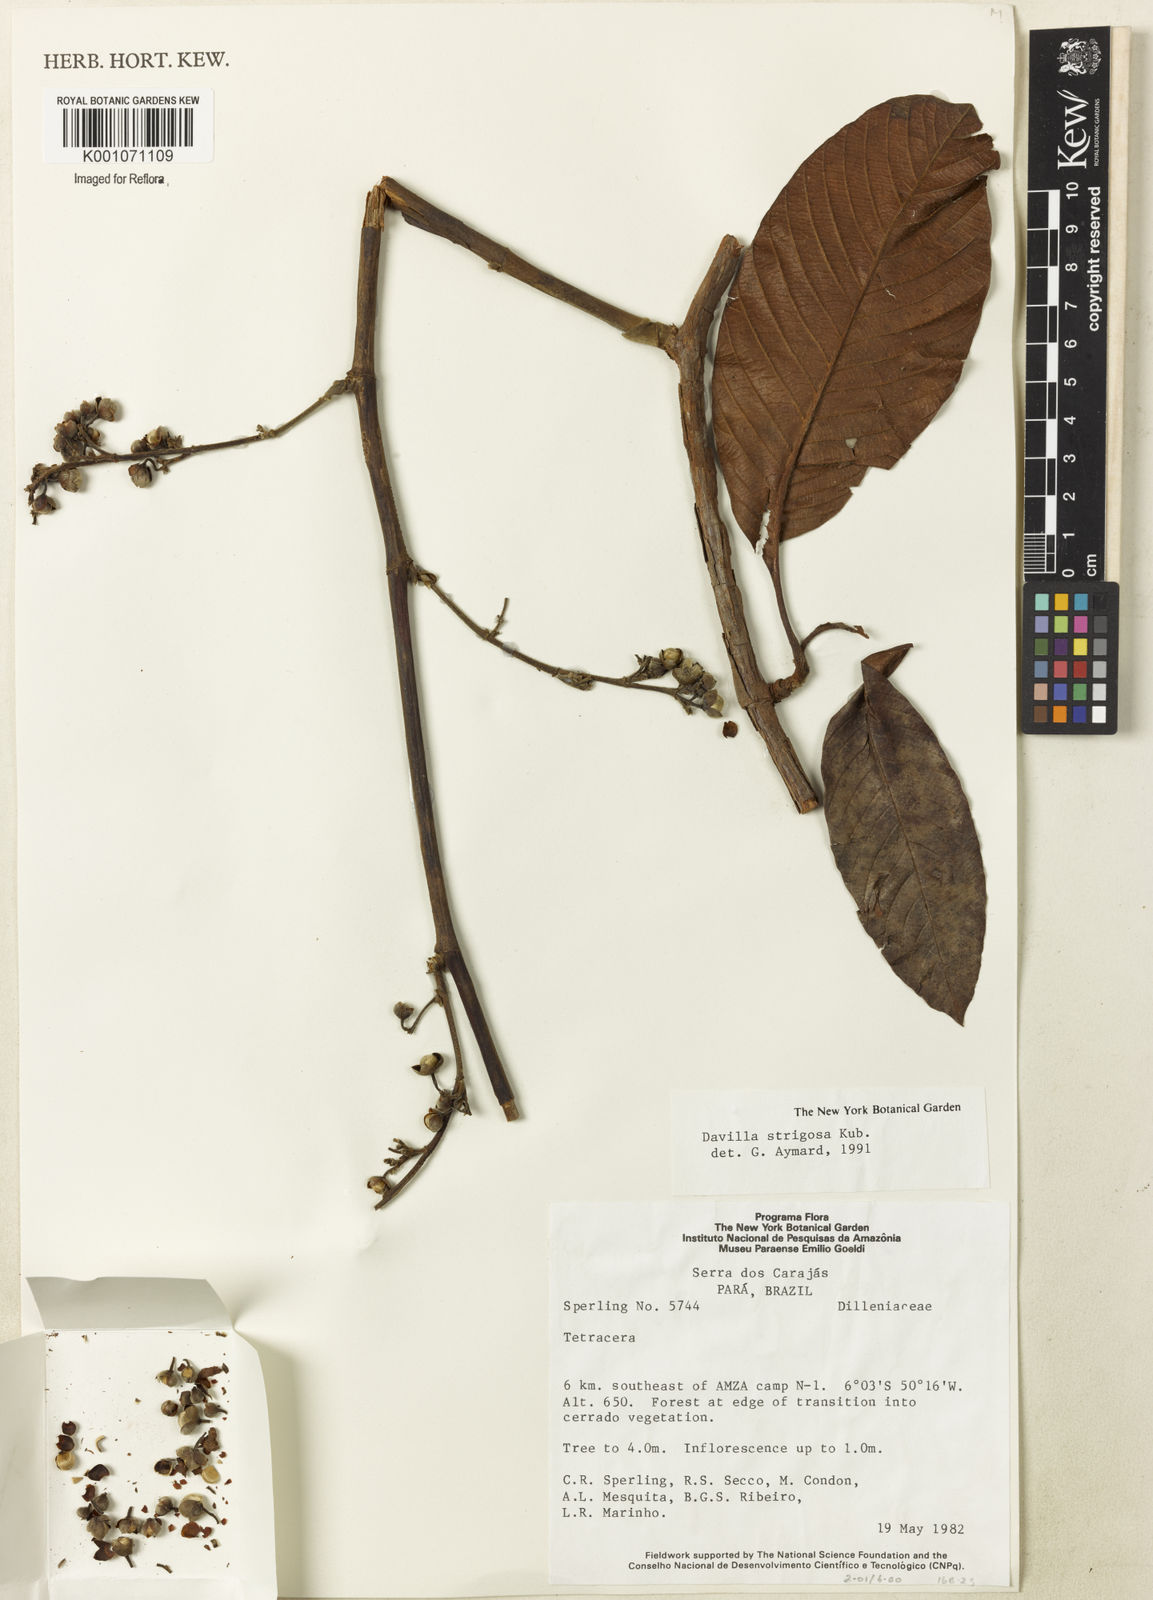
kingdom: Plantae
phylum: Tracheophyta
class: Magnoliopsida
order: Dilleniales
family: Dilleniaceae
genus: Davilla
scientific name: Davilla strigosa
